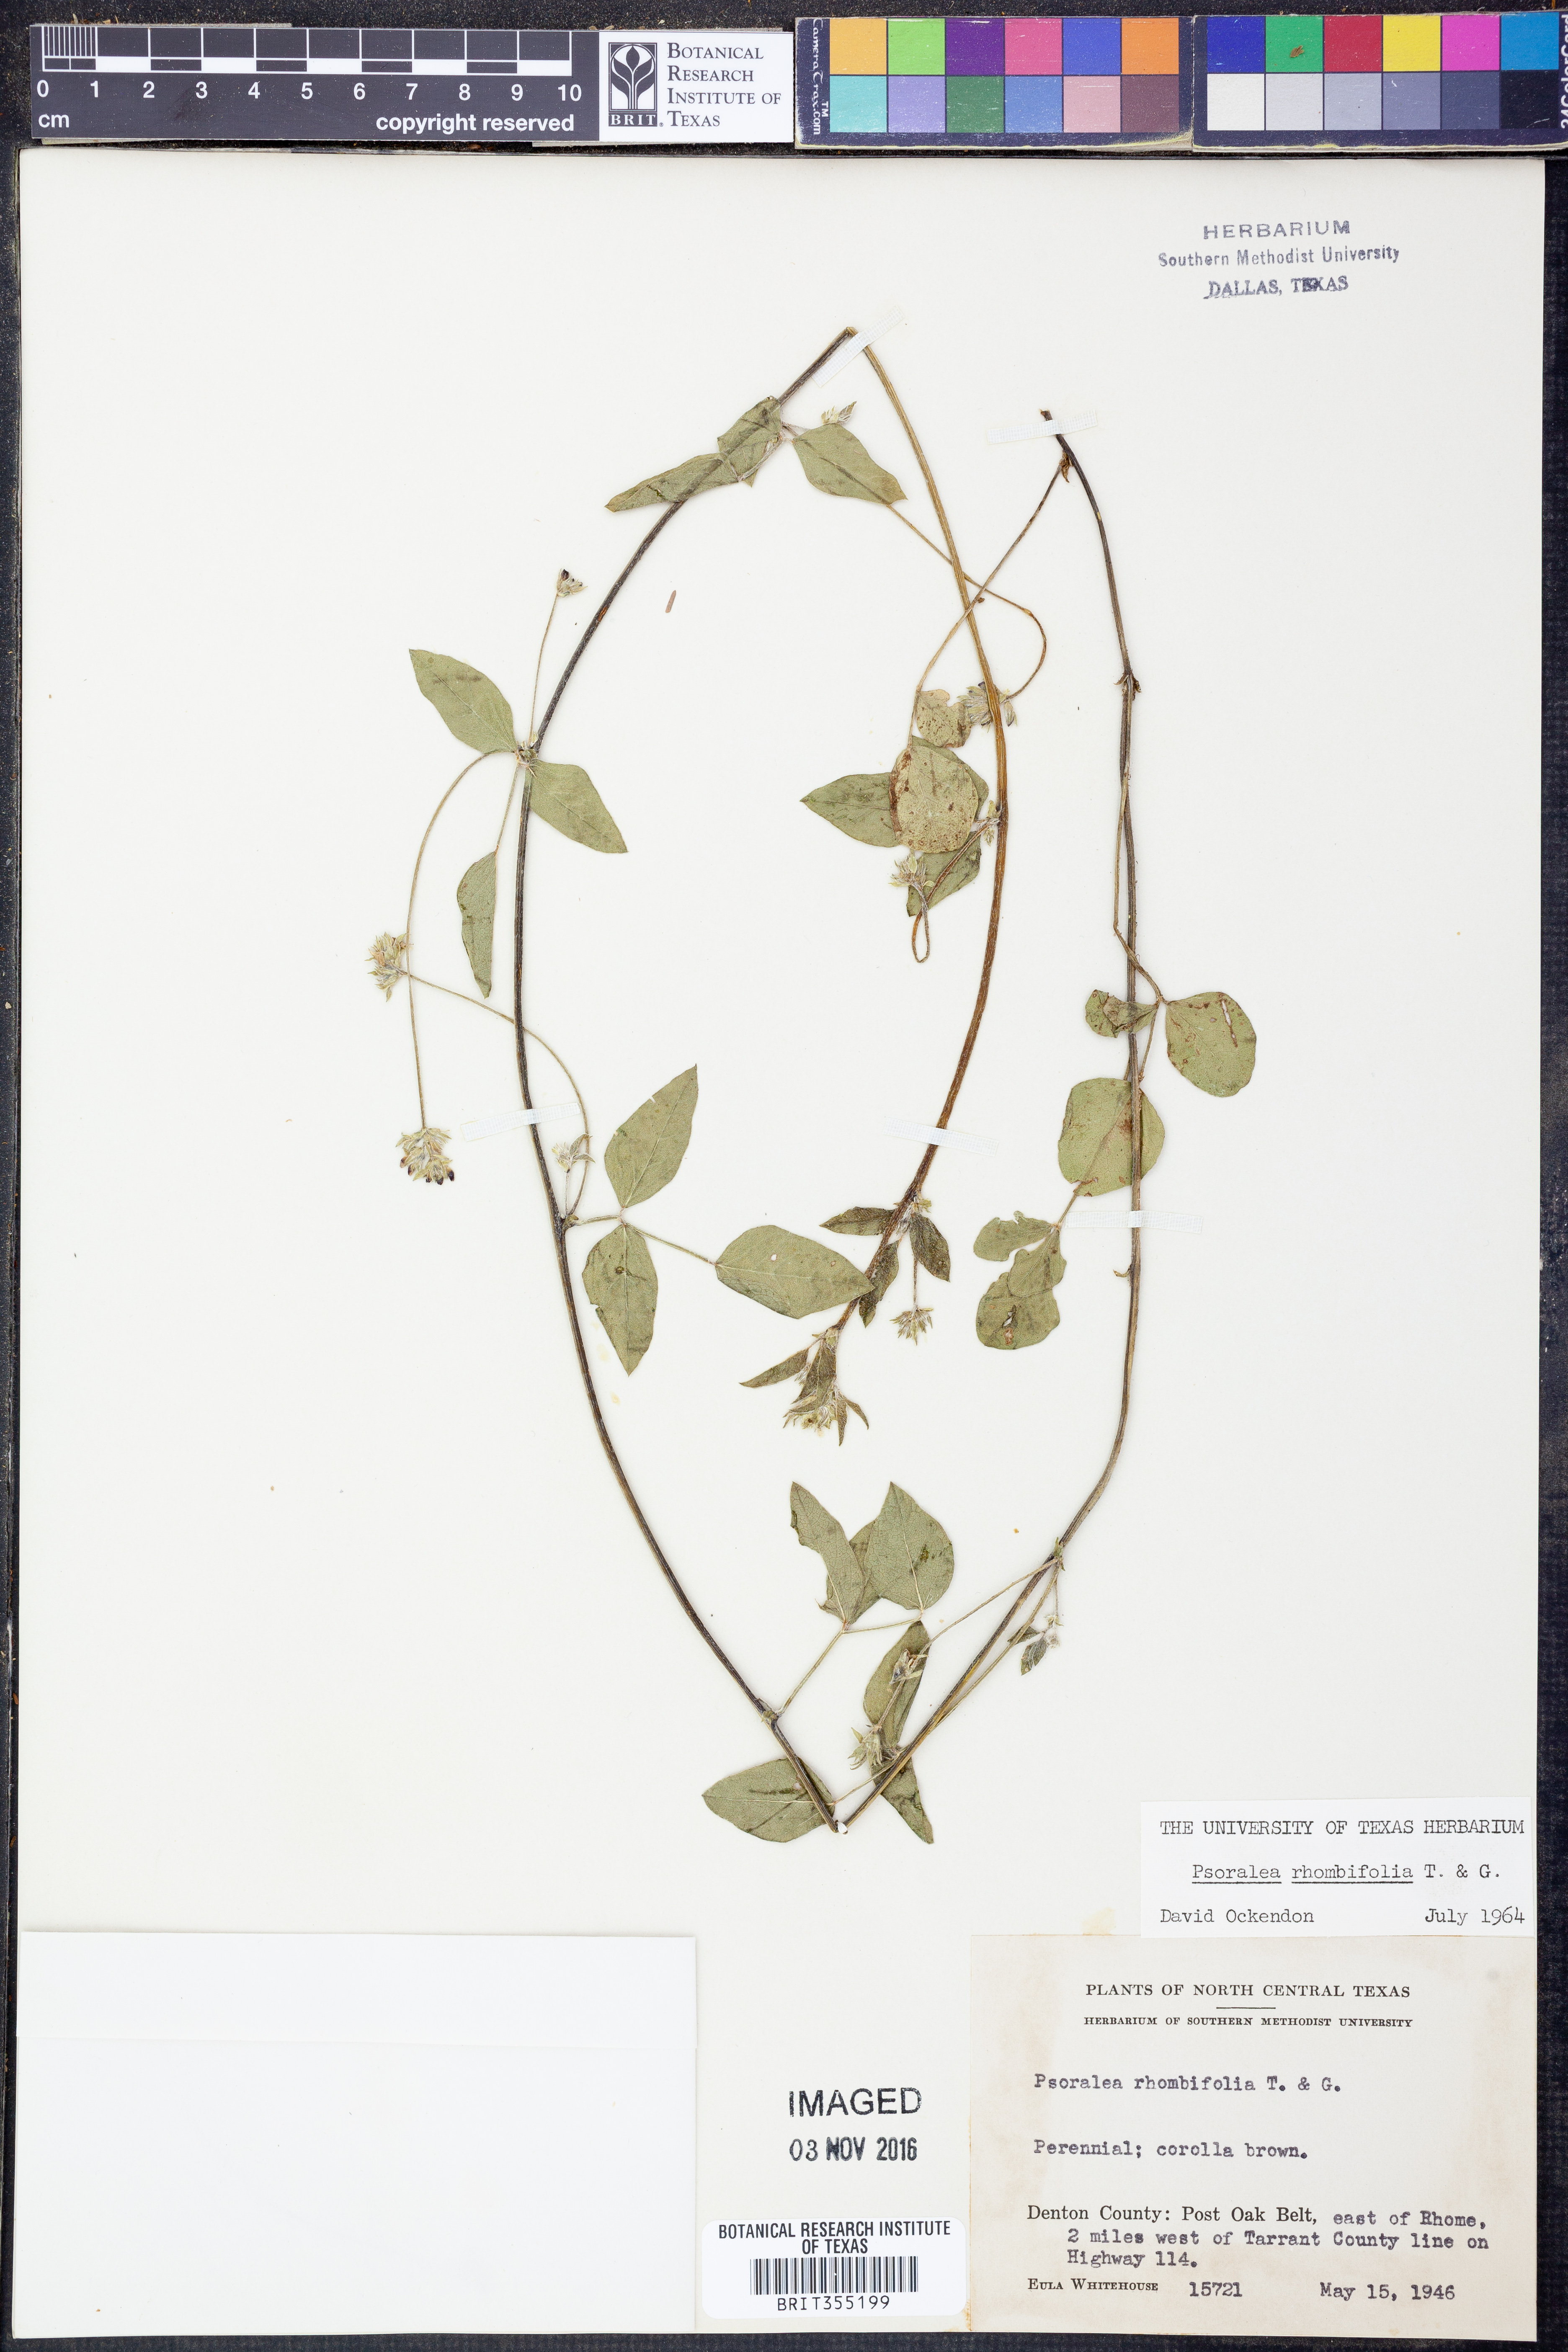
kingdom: Plantae
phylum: Tracheophyta
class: Magnoliopsida
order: Fabales
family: Fabaceae
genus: Pediomelum
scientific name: Pediomelum rhombifolium
